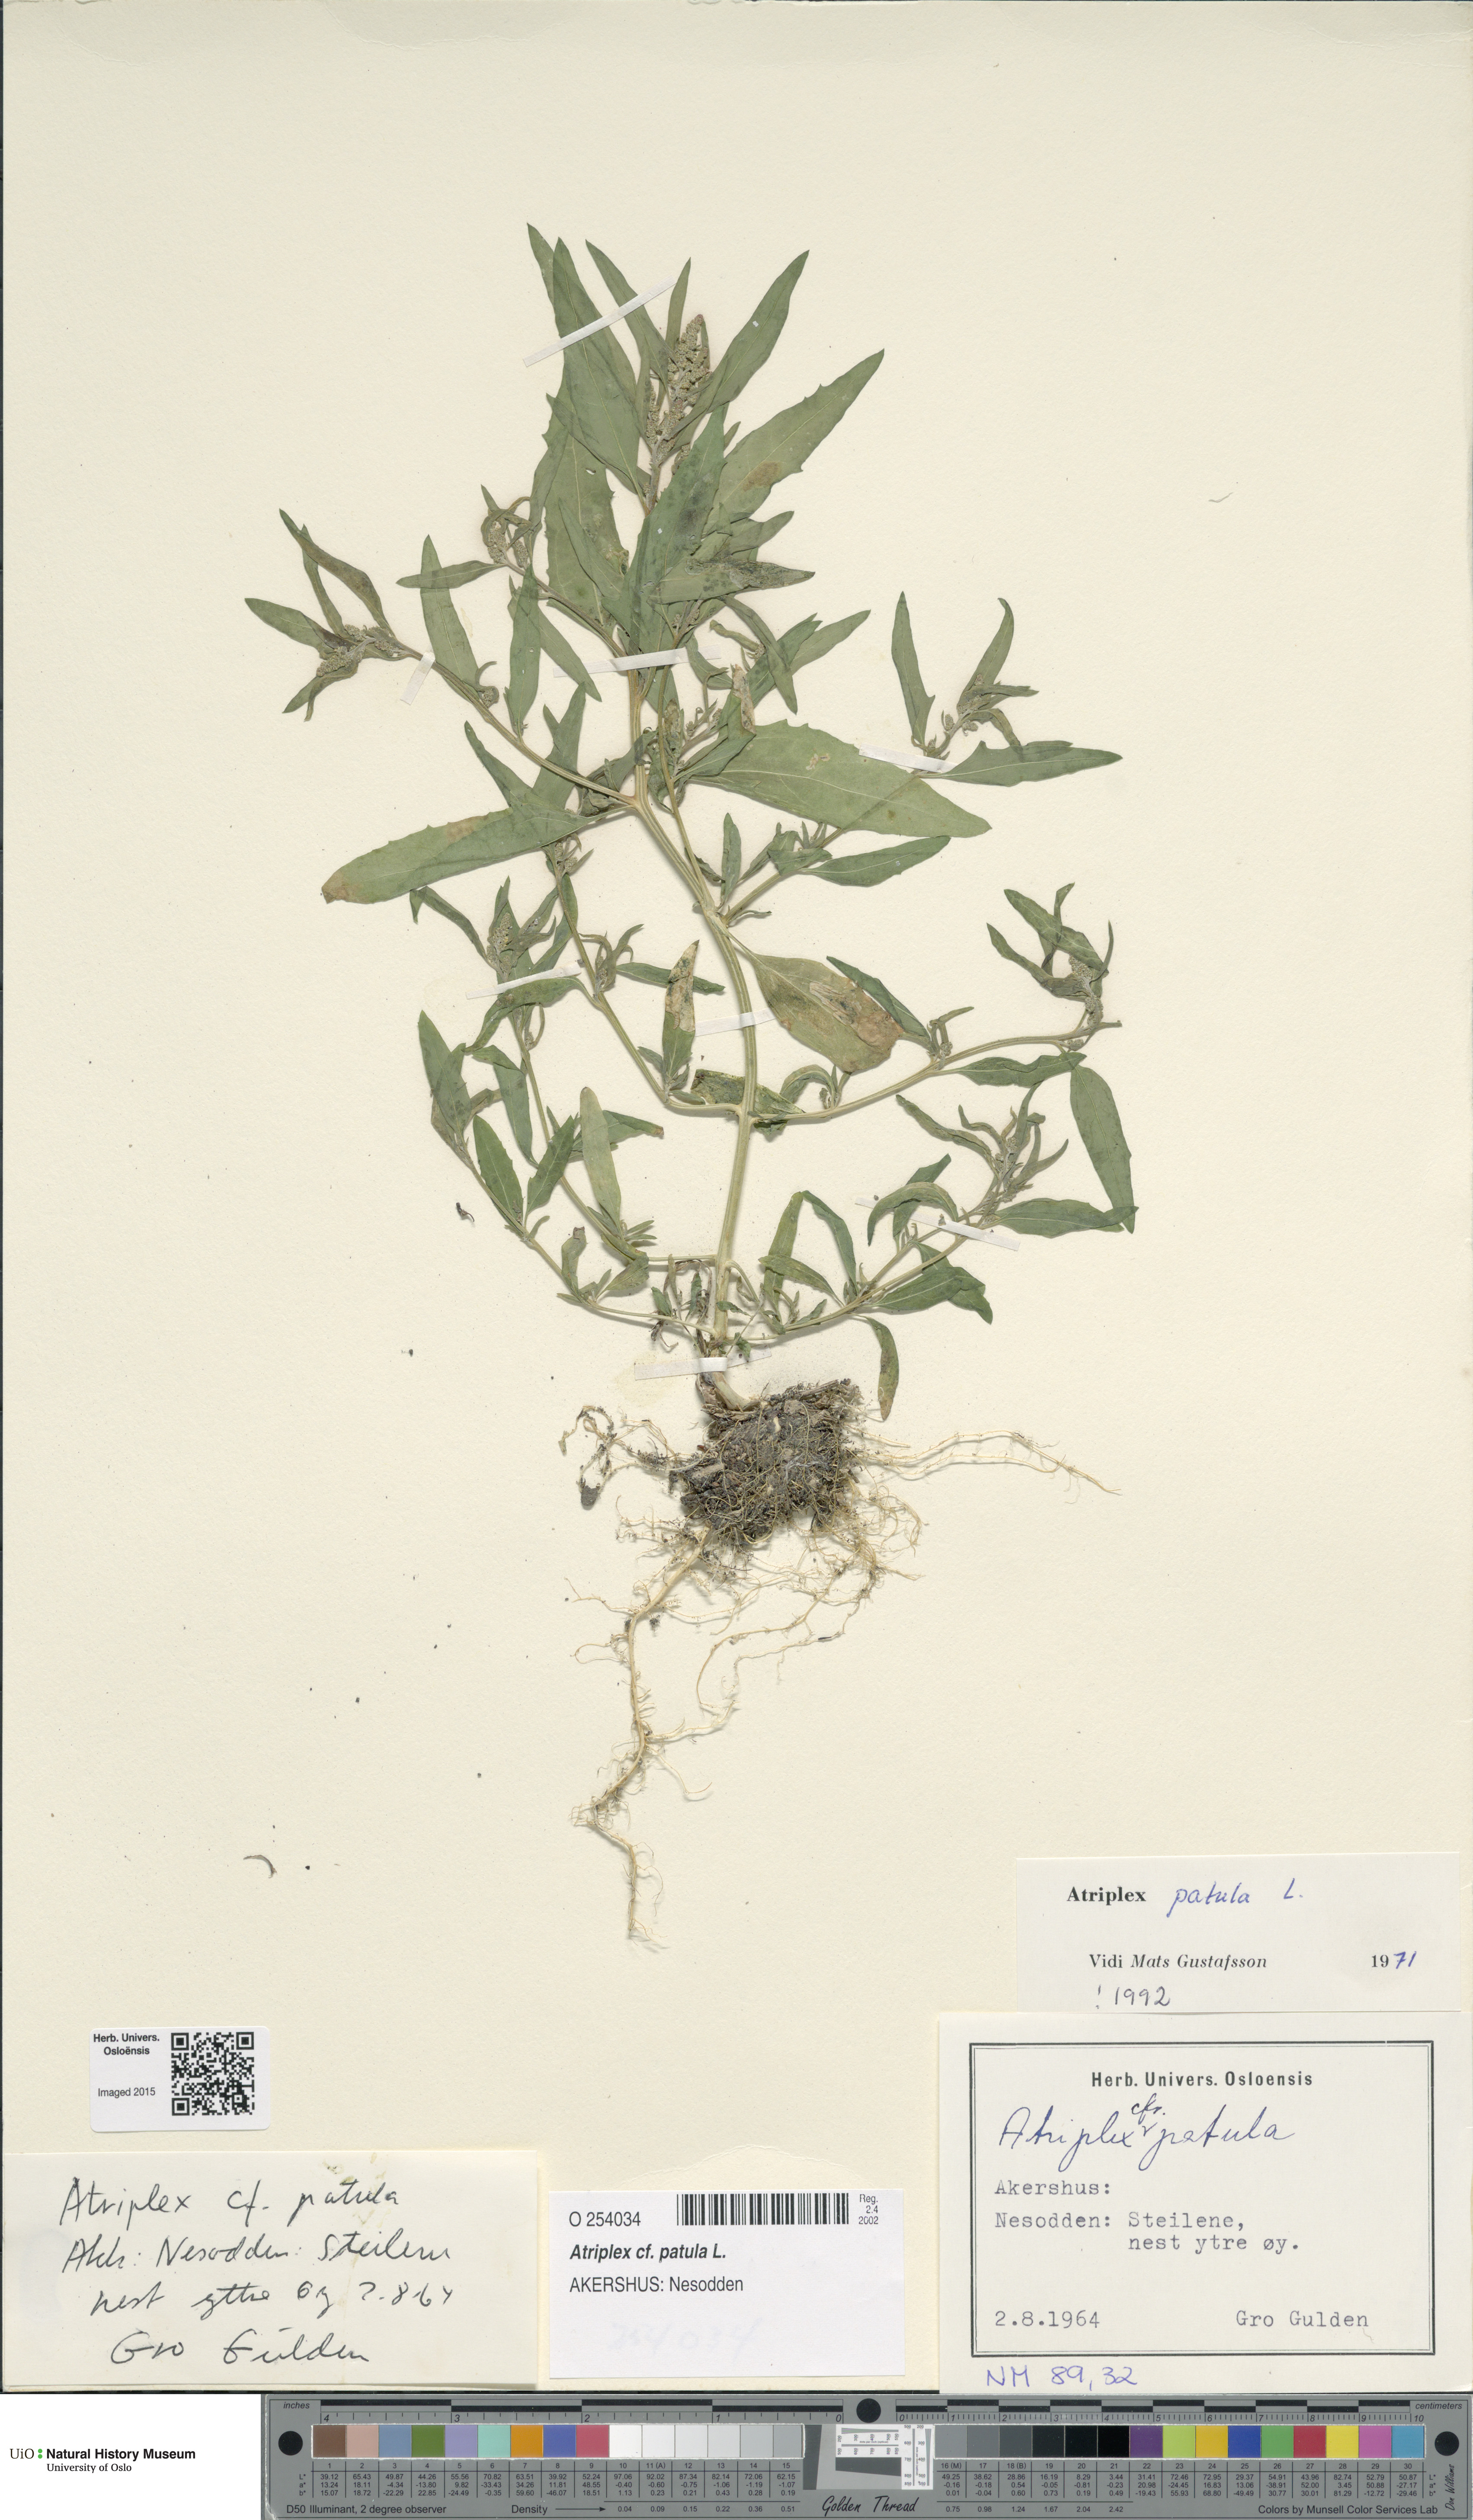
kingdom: Plantae
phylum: Tracheophyta
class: Magnoliopsida
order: Caryophyllales
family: Amaranthaceae
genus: Atriplex
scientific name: Atriplex patula
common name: Common orache
